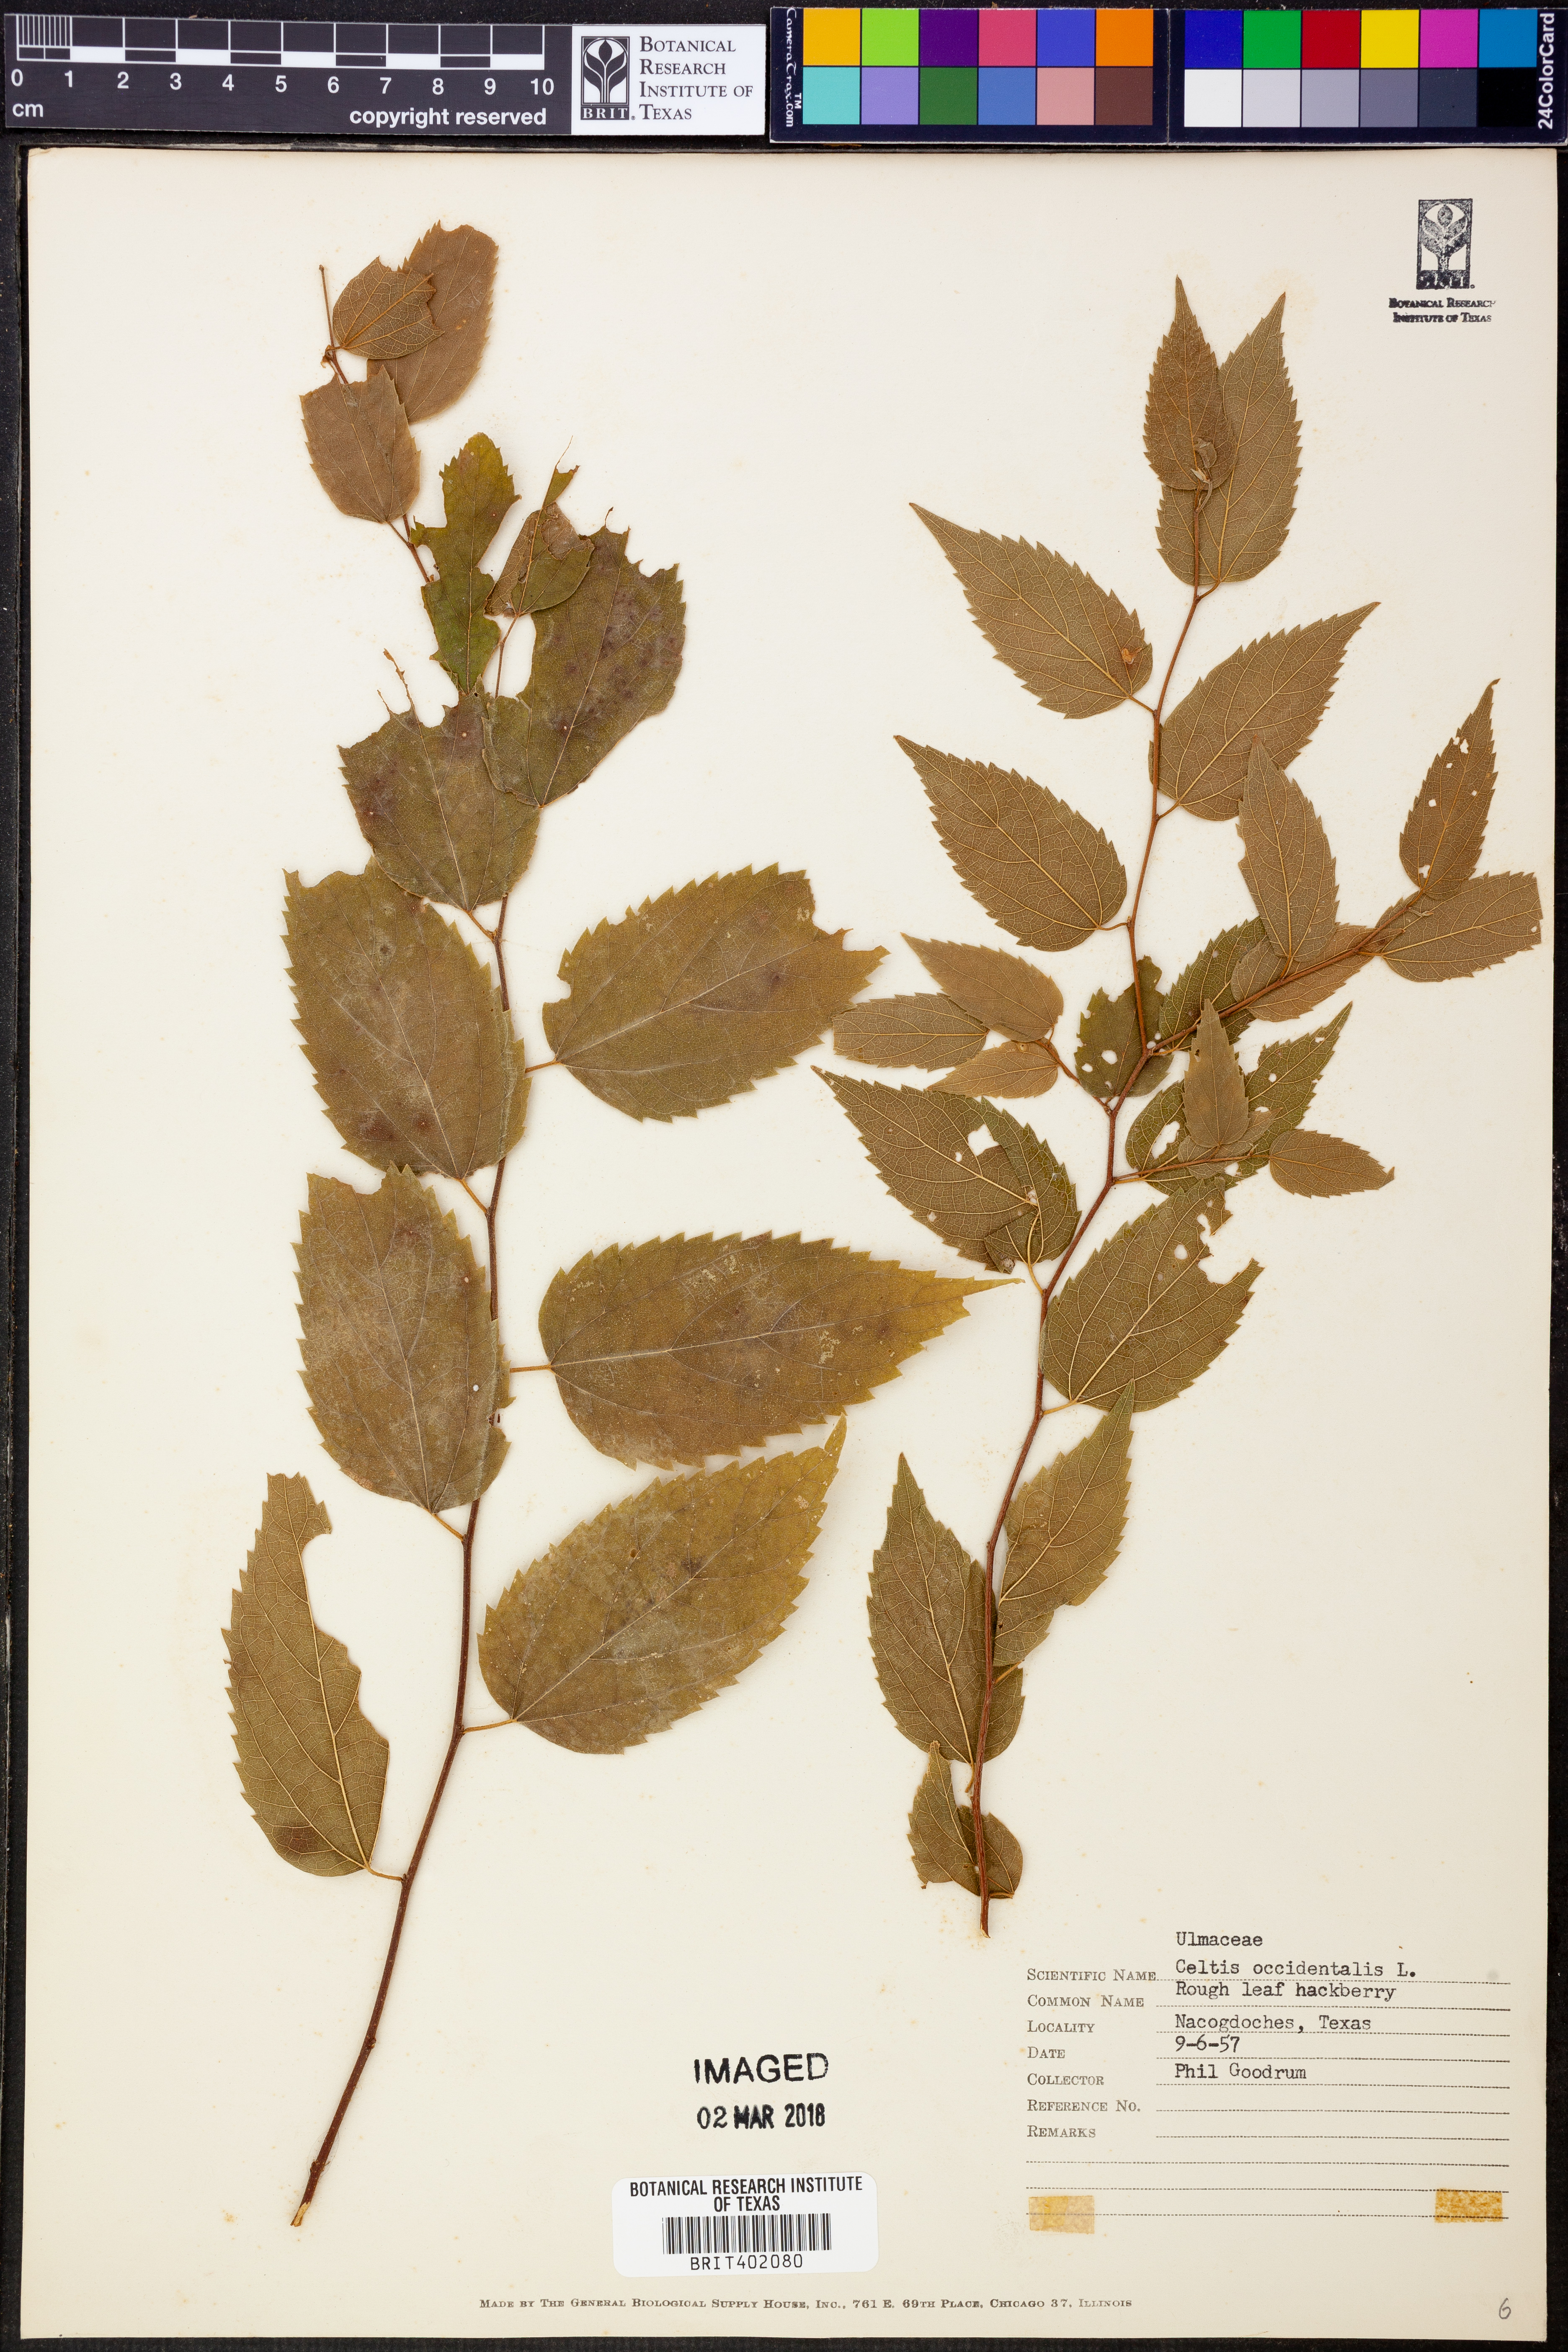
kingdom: Plantae
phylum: Tracheophyta
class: Magnoliopsida
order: Rosales
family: Cannabaceae
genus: Celtis
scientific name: Celtis occidentalis
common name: Common hackberry
